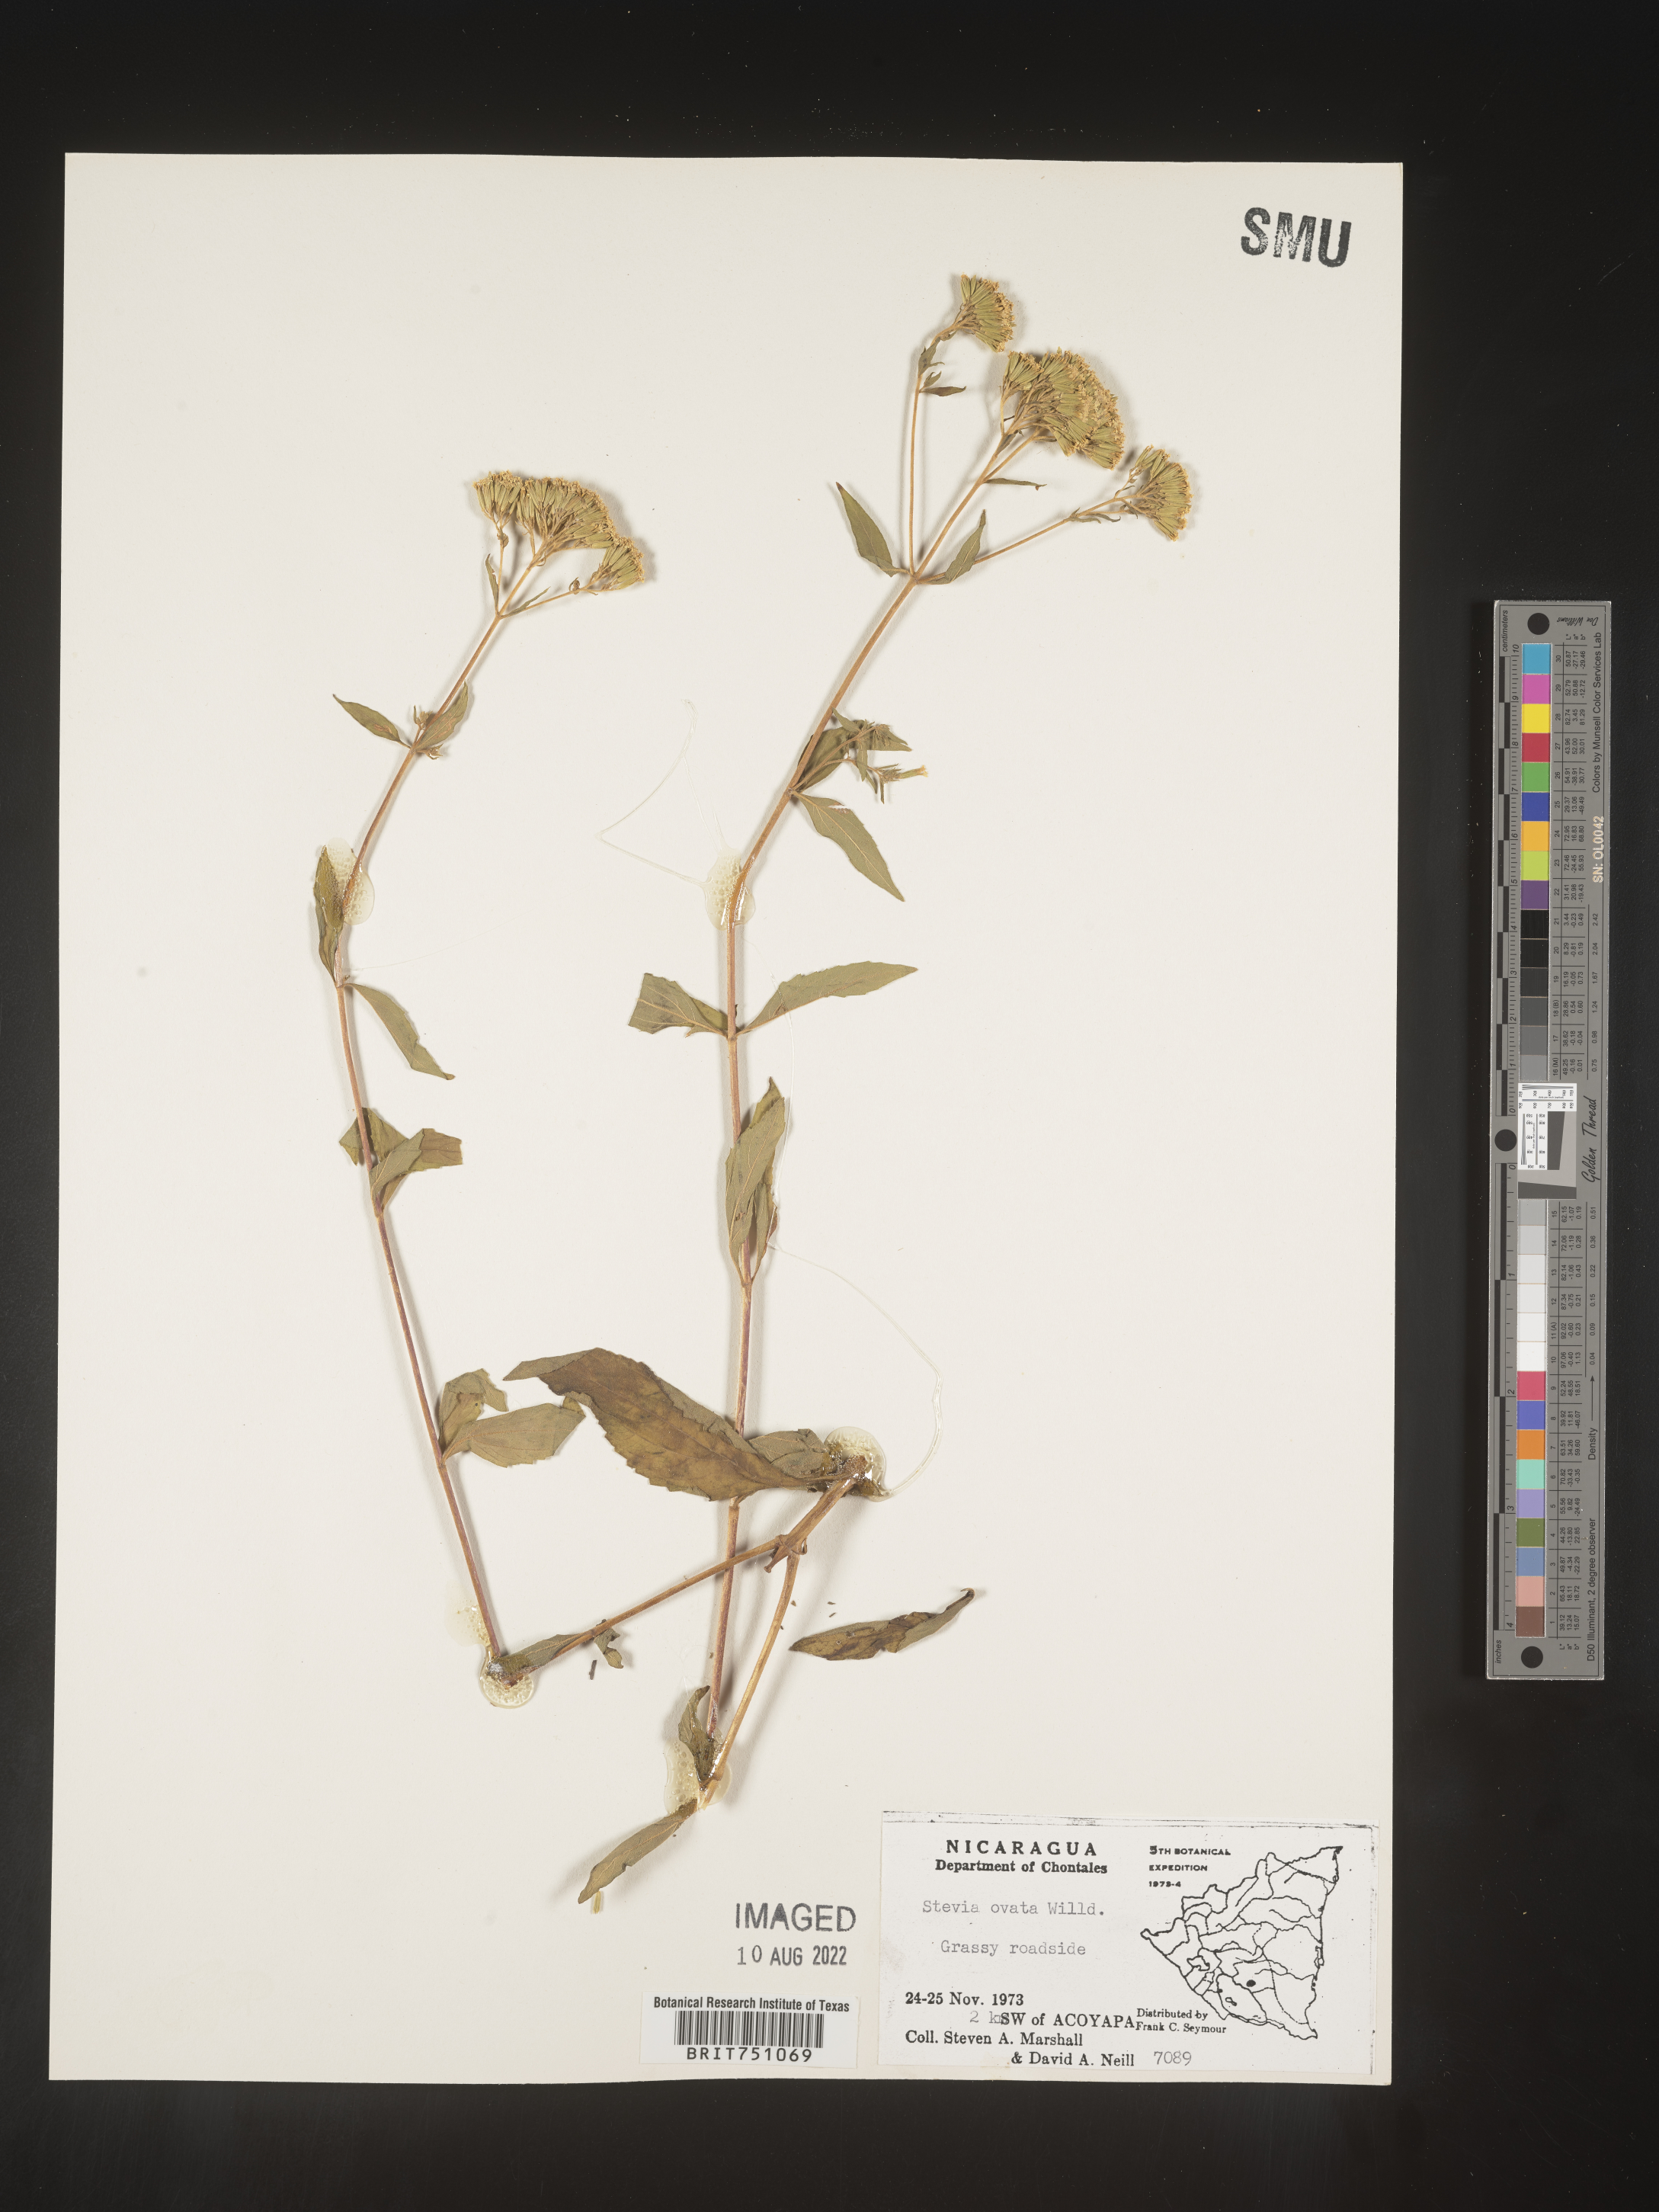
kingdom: Plantae
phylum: Tracheophyta
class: Magnoliopsida
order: Asterales
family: Asteraceae
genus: Stevia
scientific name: Stevia ovata
